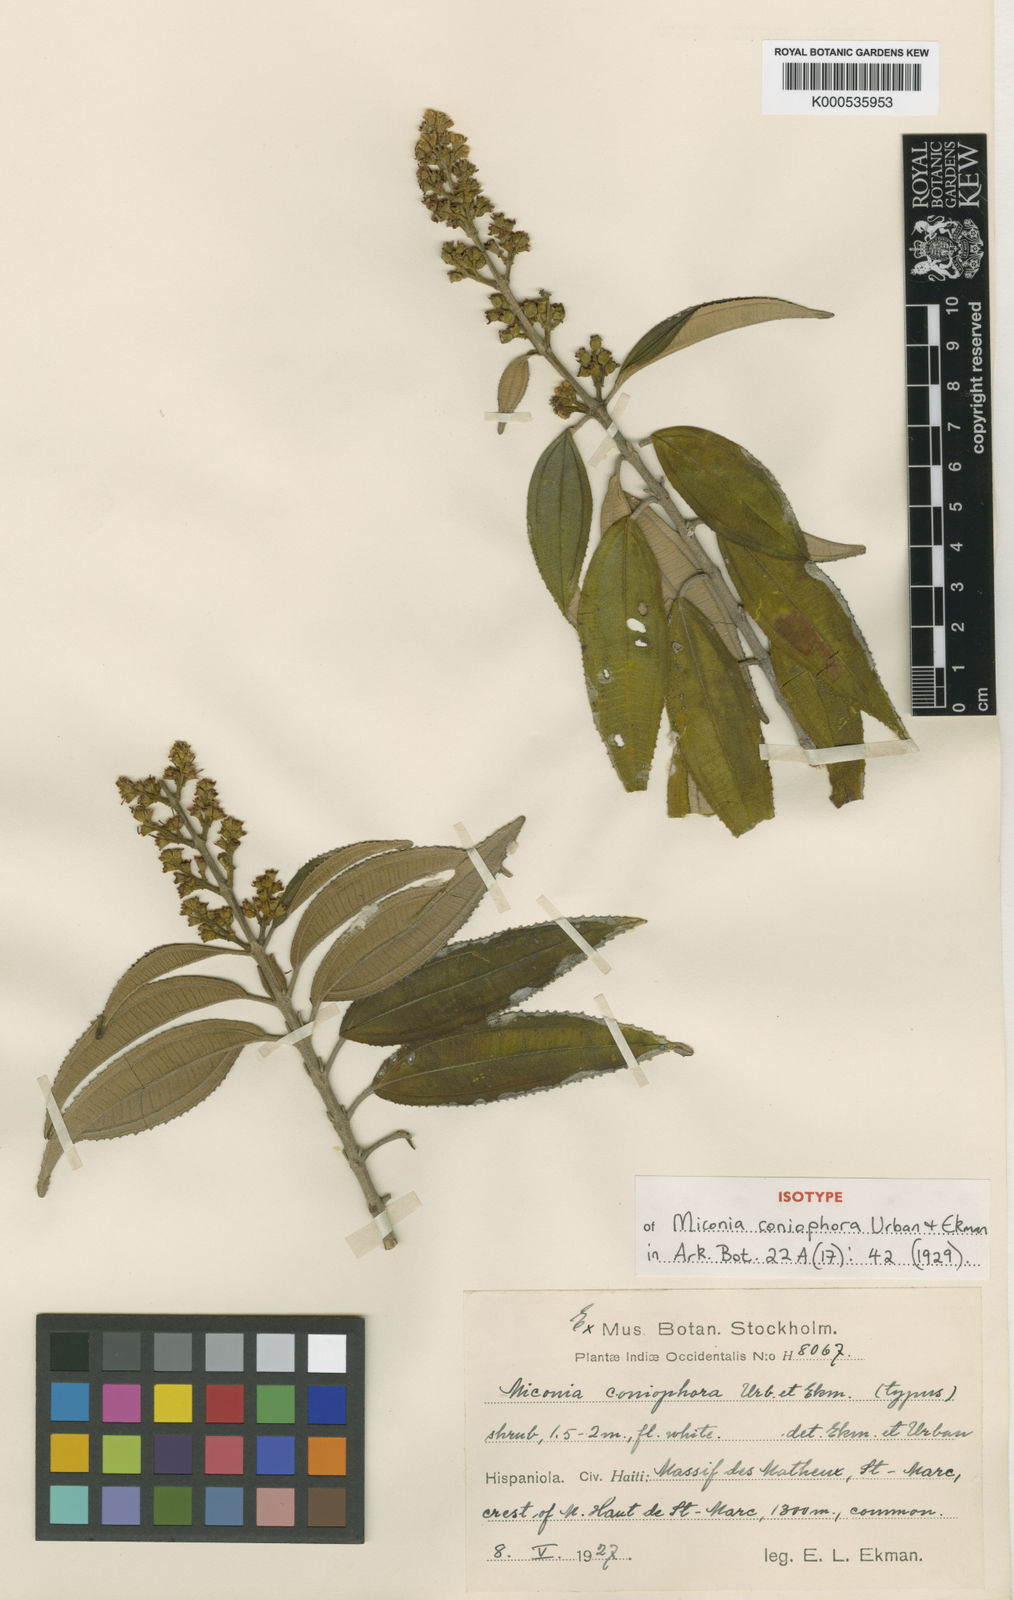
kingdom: Plantae
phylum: Tracheophyta
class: Magnoliopsida
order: Myrtales
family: Melastomataceae
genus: Miconia
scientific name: Miconia coniophora
